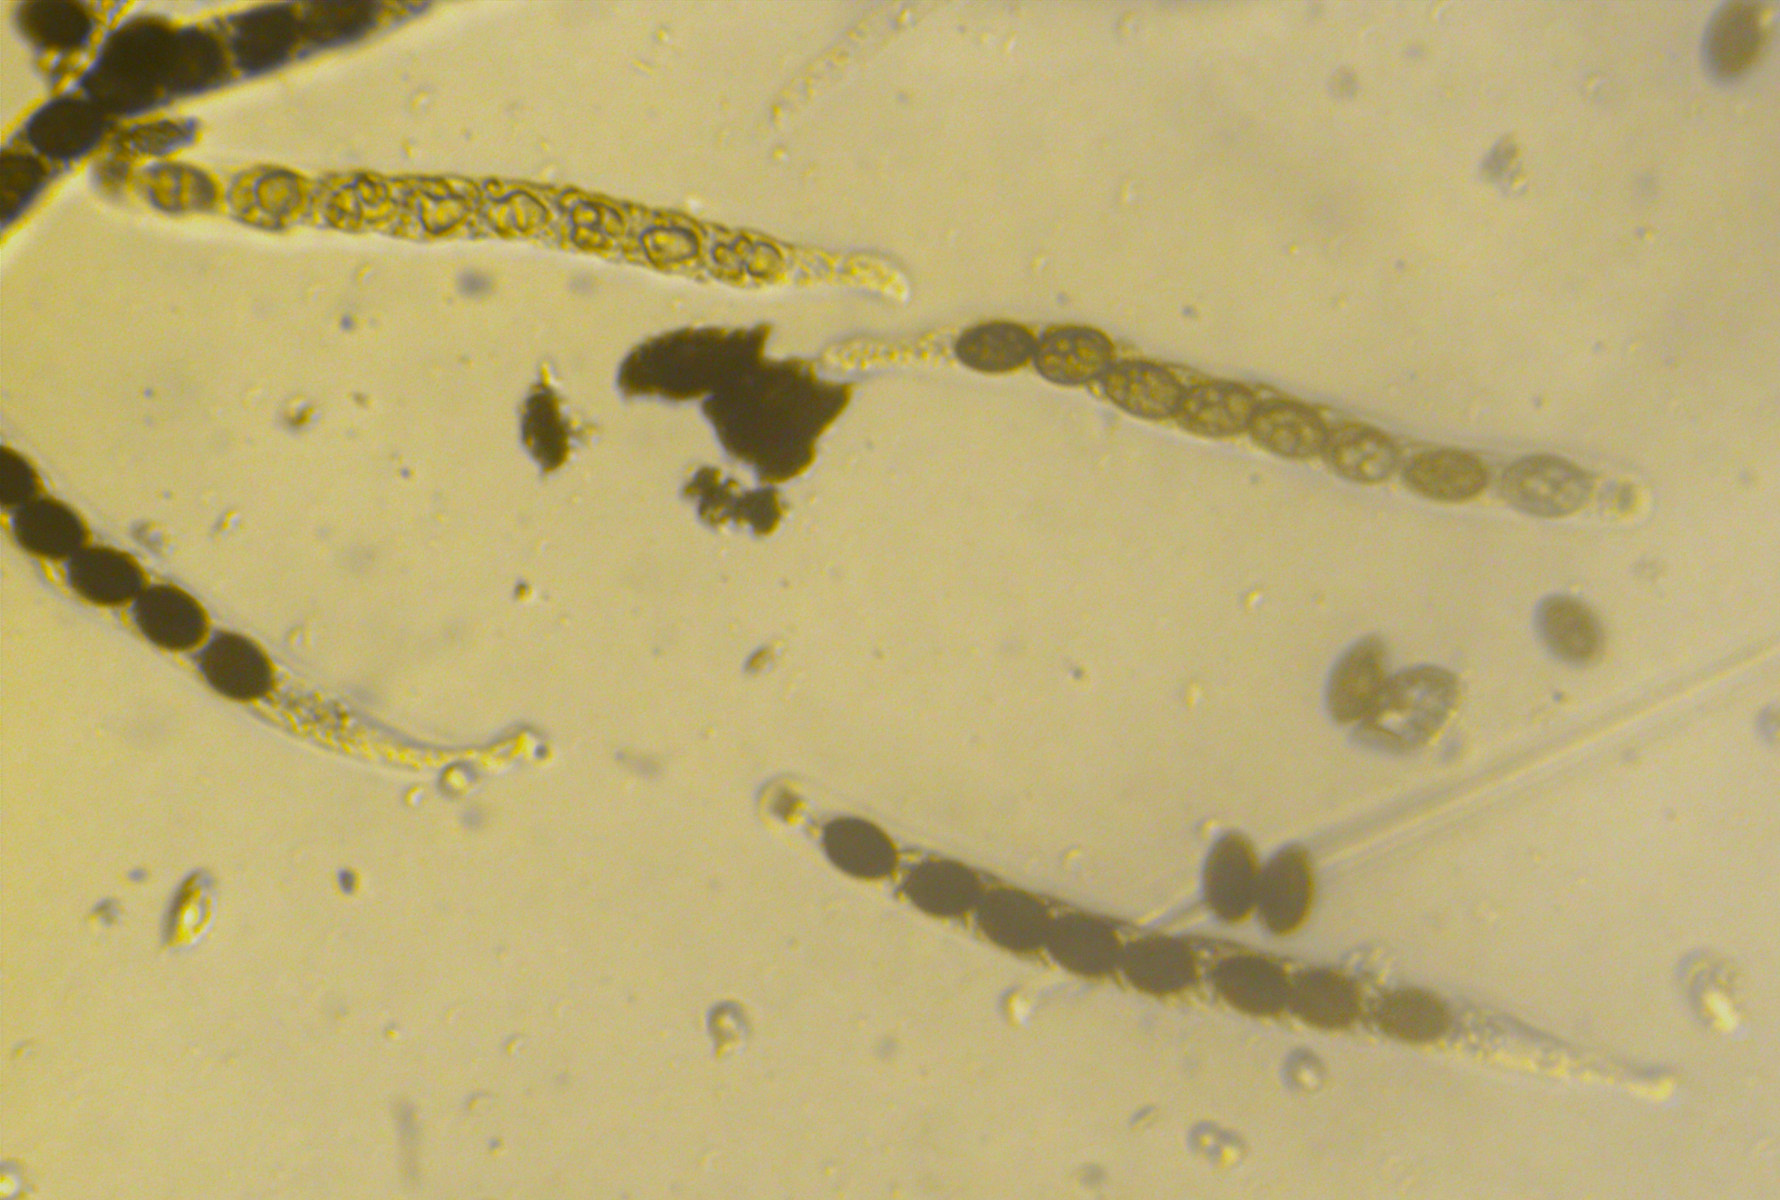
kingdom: Fungi
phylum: Ascomycota
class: Sordariomycetes
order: Xylariales
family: Graphostromataceae
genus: Biscogniauxia
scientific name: Biscogniauxia nummularia
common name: bøge-kulskive
